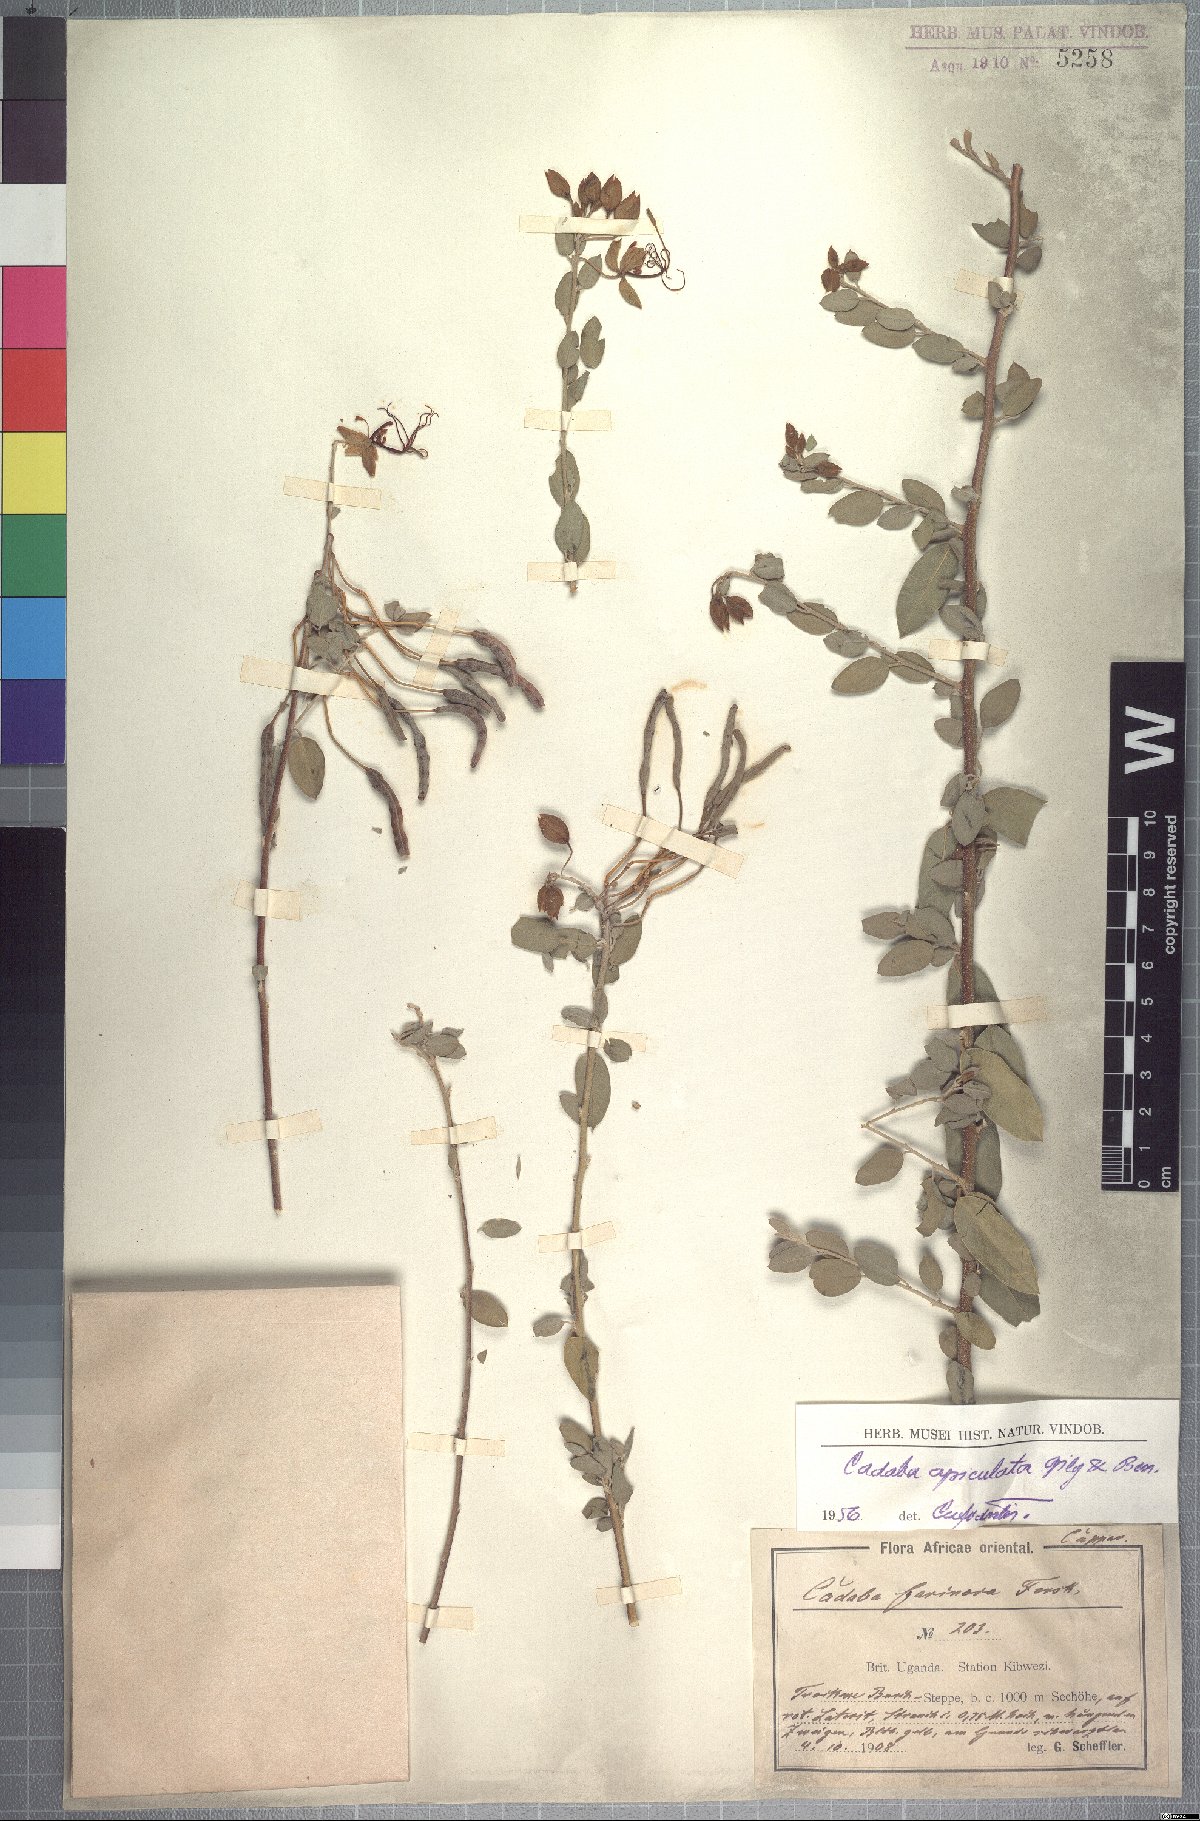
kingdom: Plantae
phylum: Tracheophyta
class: Magnoliopsida
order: Brassicales
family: Capparaceae
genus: Cadaba
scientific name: Cadaba farinosa
